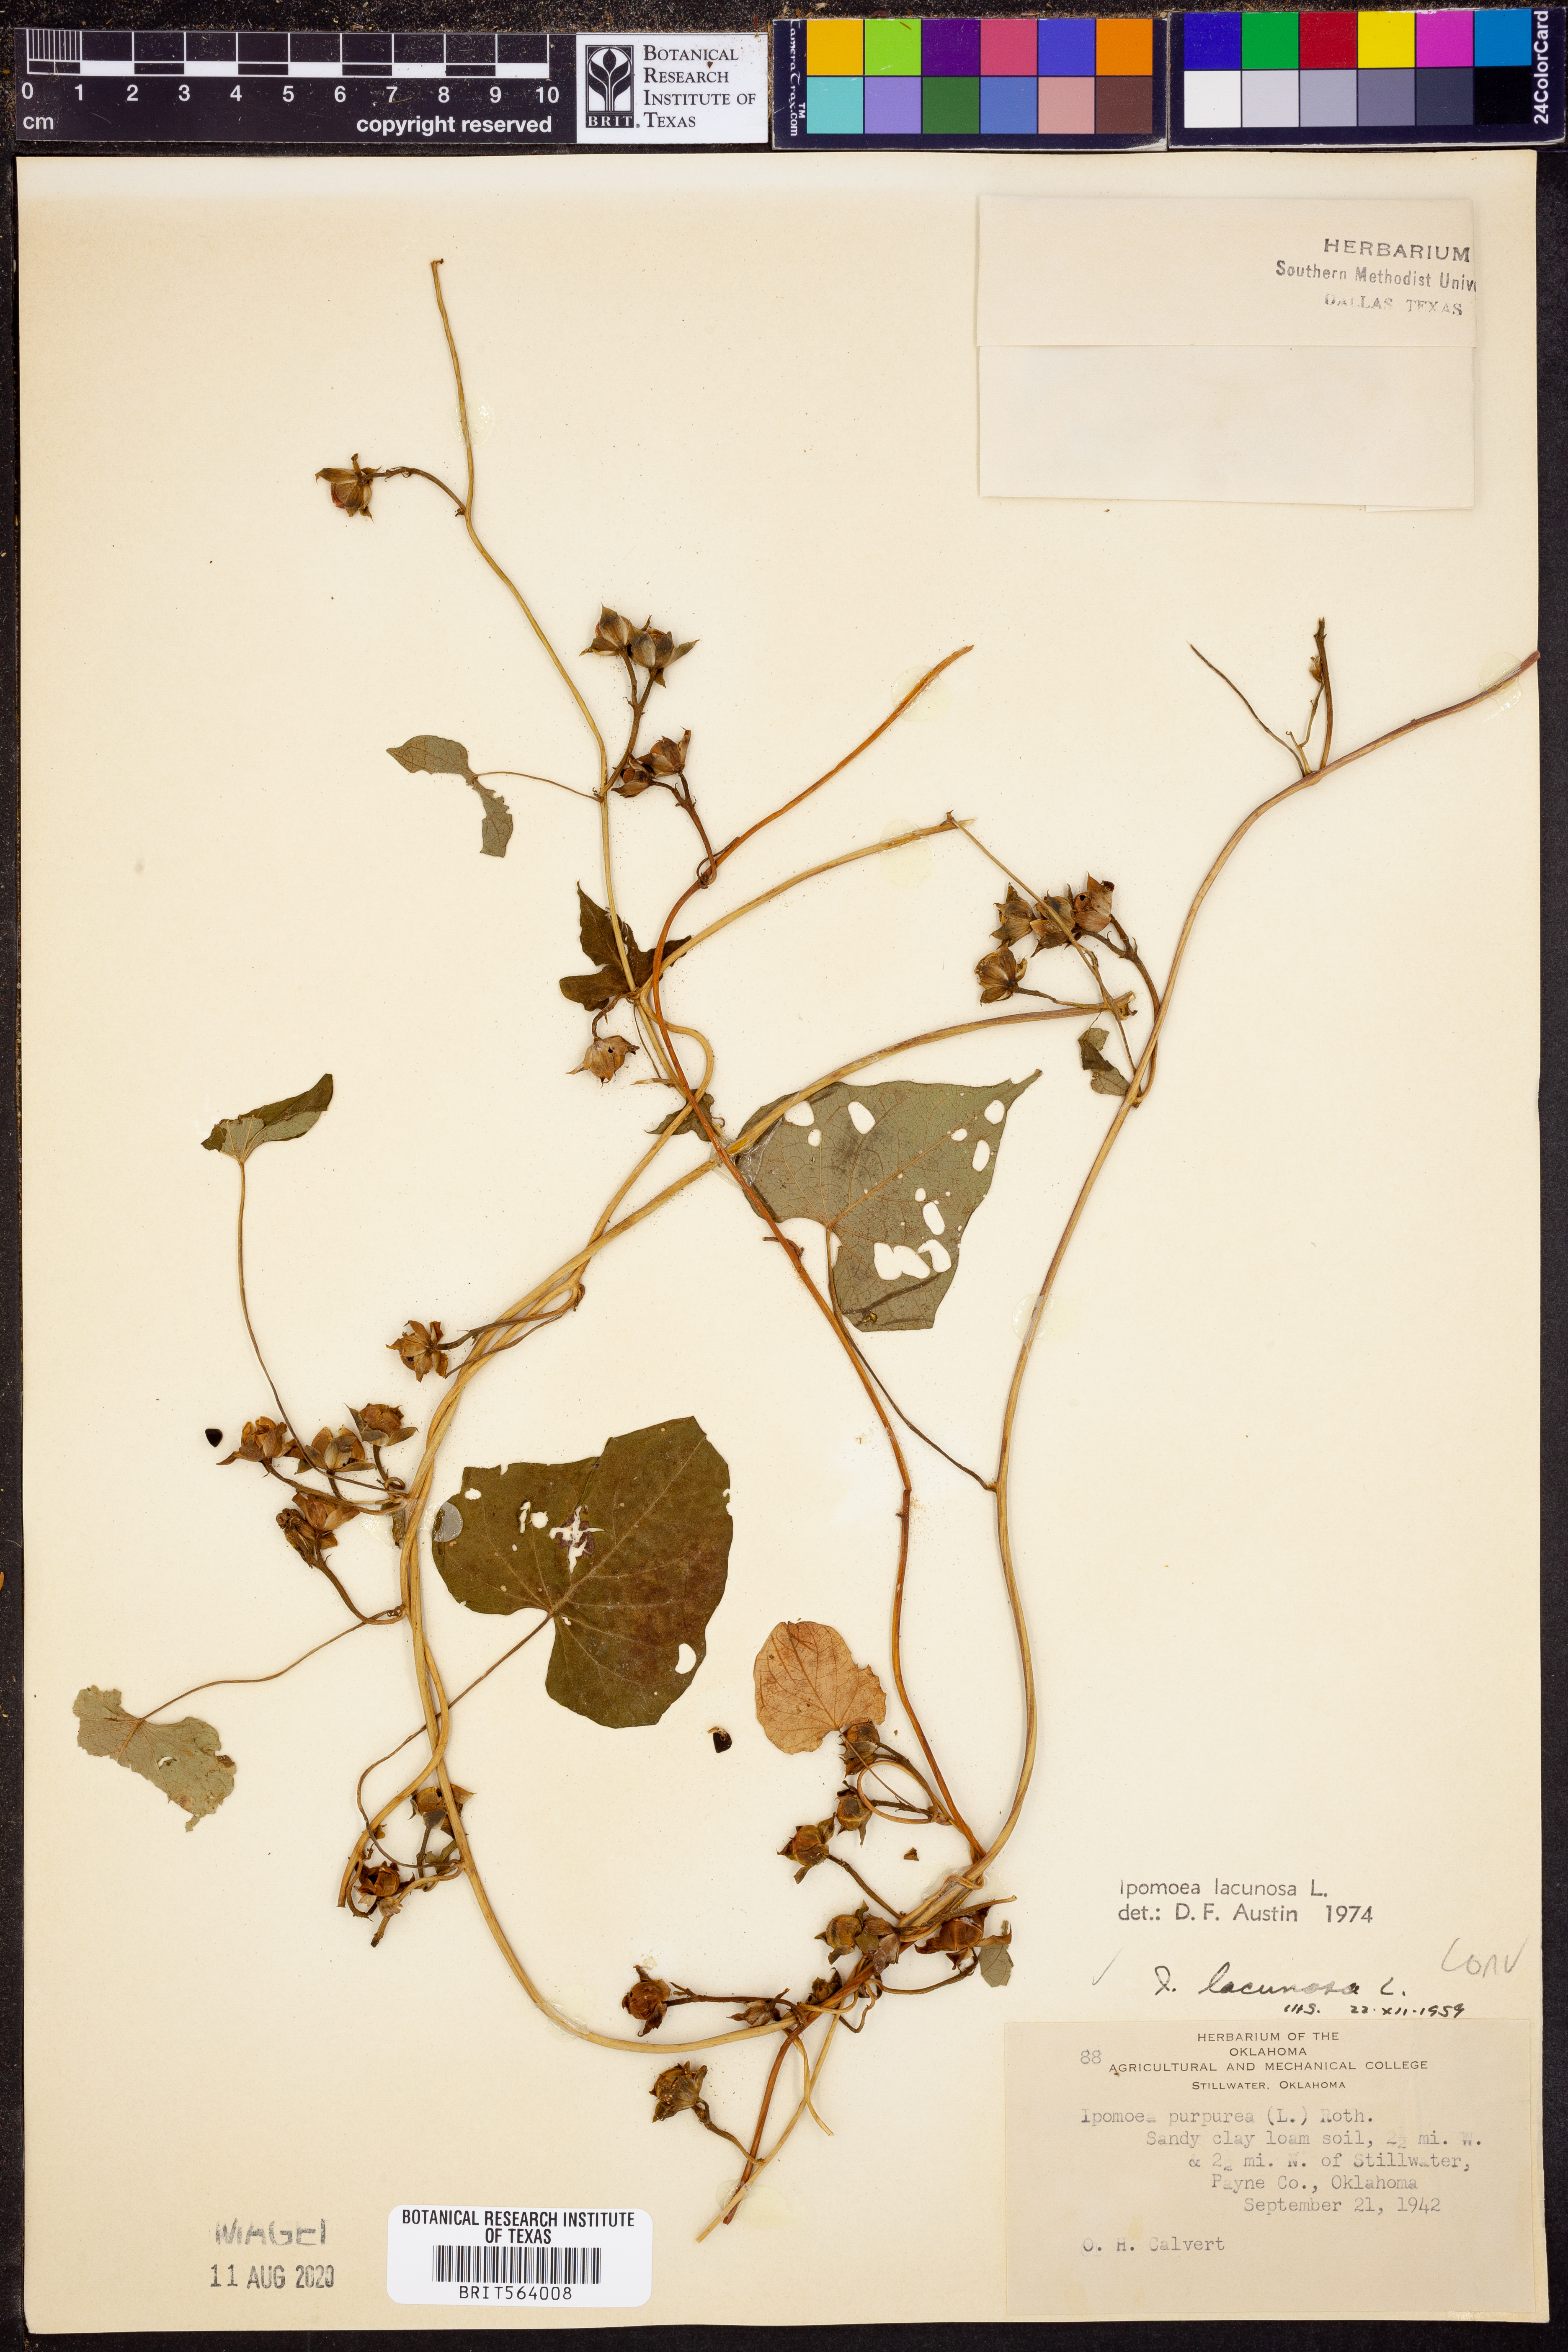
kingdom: Plantae
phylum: Tracheophyta
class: Magnoliopsida
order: Solanales
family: Convolvulaceae
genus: Ipomoea
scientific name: Ipomoea lacunosa
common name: White morning-glory
